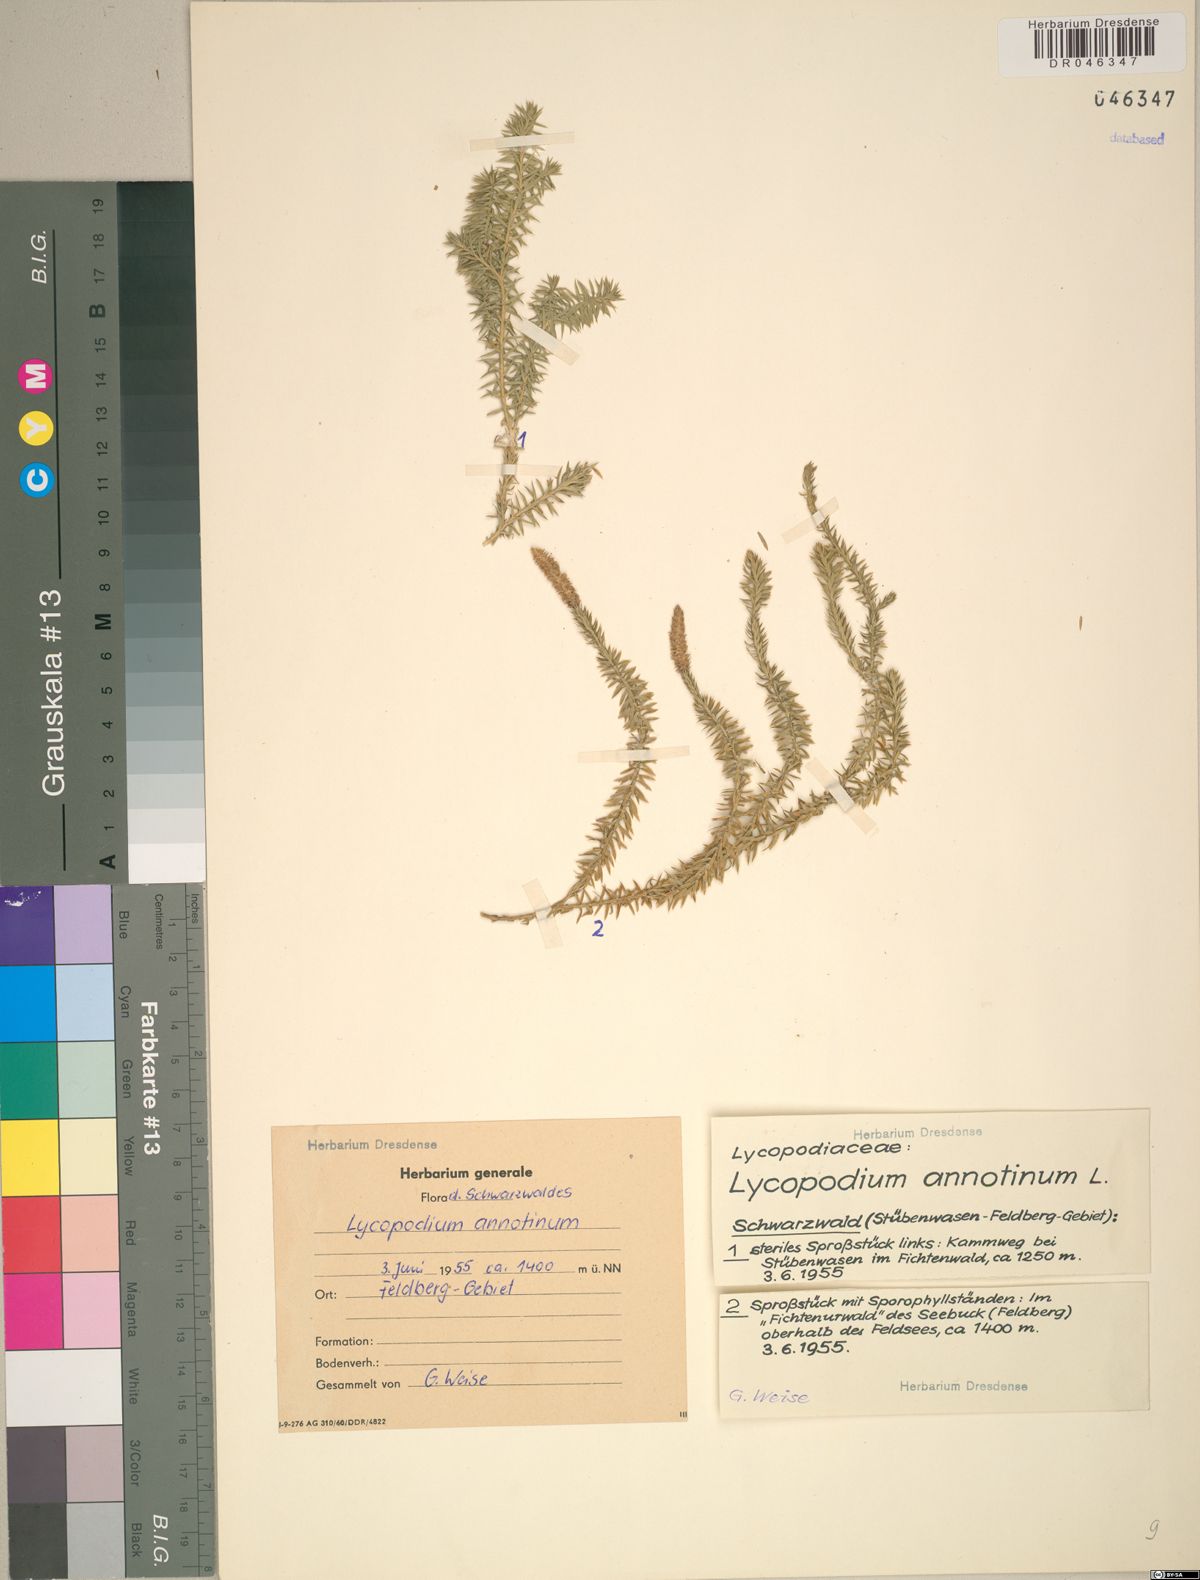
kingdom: Plantae
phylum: Tracheophyta
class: Lycopodiopsida
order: Lycopodiales
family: Lycopodiaceae
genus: Spinulum
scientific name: Spinulum annotinum
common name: Interrupted club-moss
